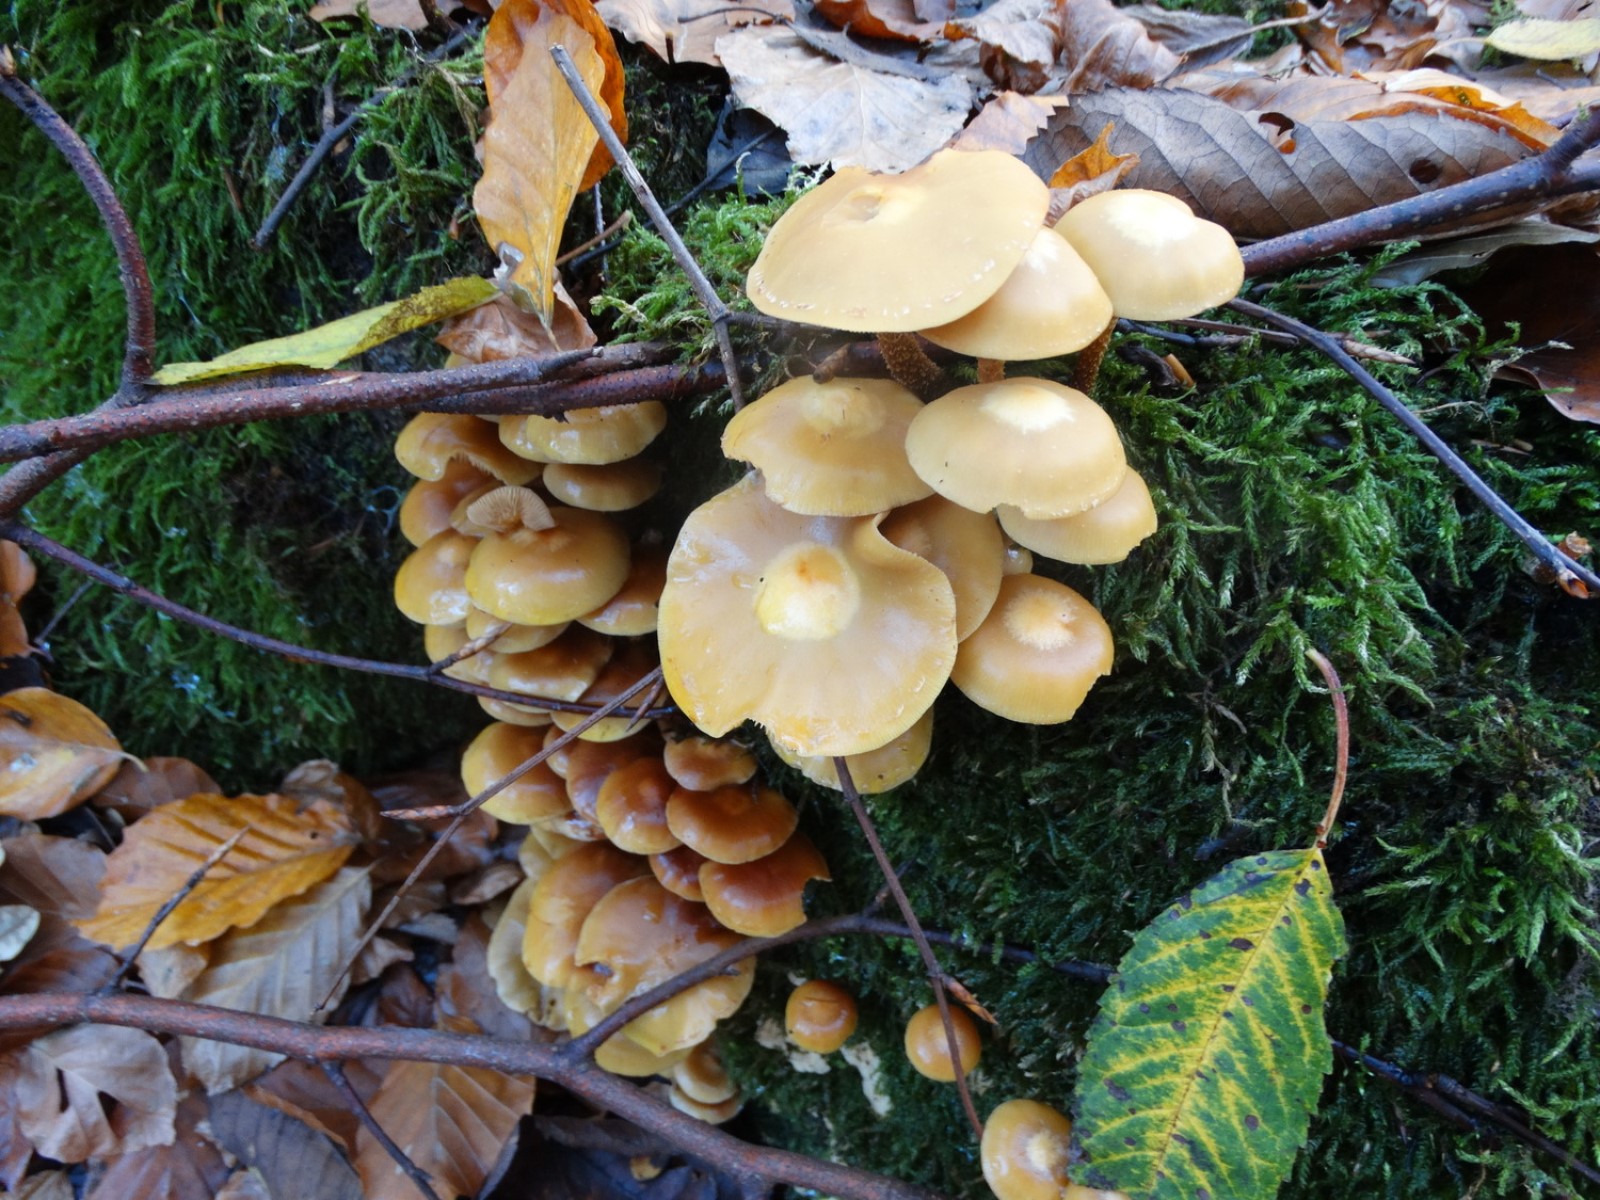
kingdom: Fungi
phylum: Basidiomycota
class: Agaricomycetes
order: Agaricales
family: Strophariaceae
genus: Kuehneromyces
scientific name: Kuehneromyces mutabilis
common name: foranderlig skælhat
